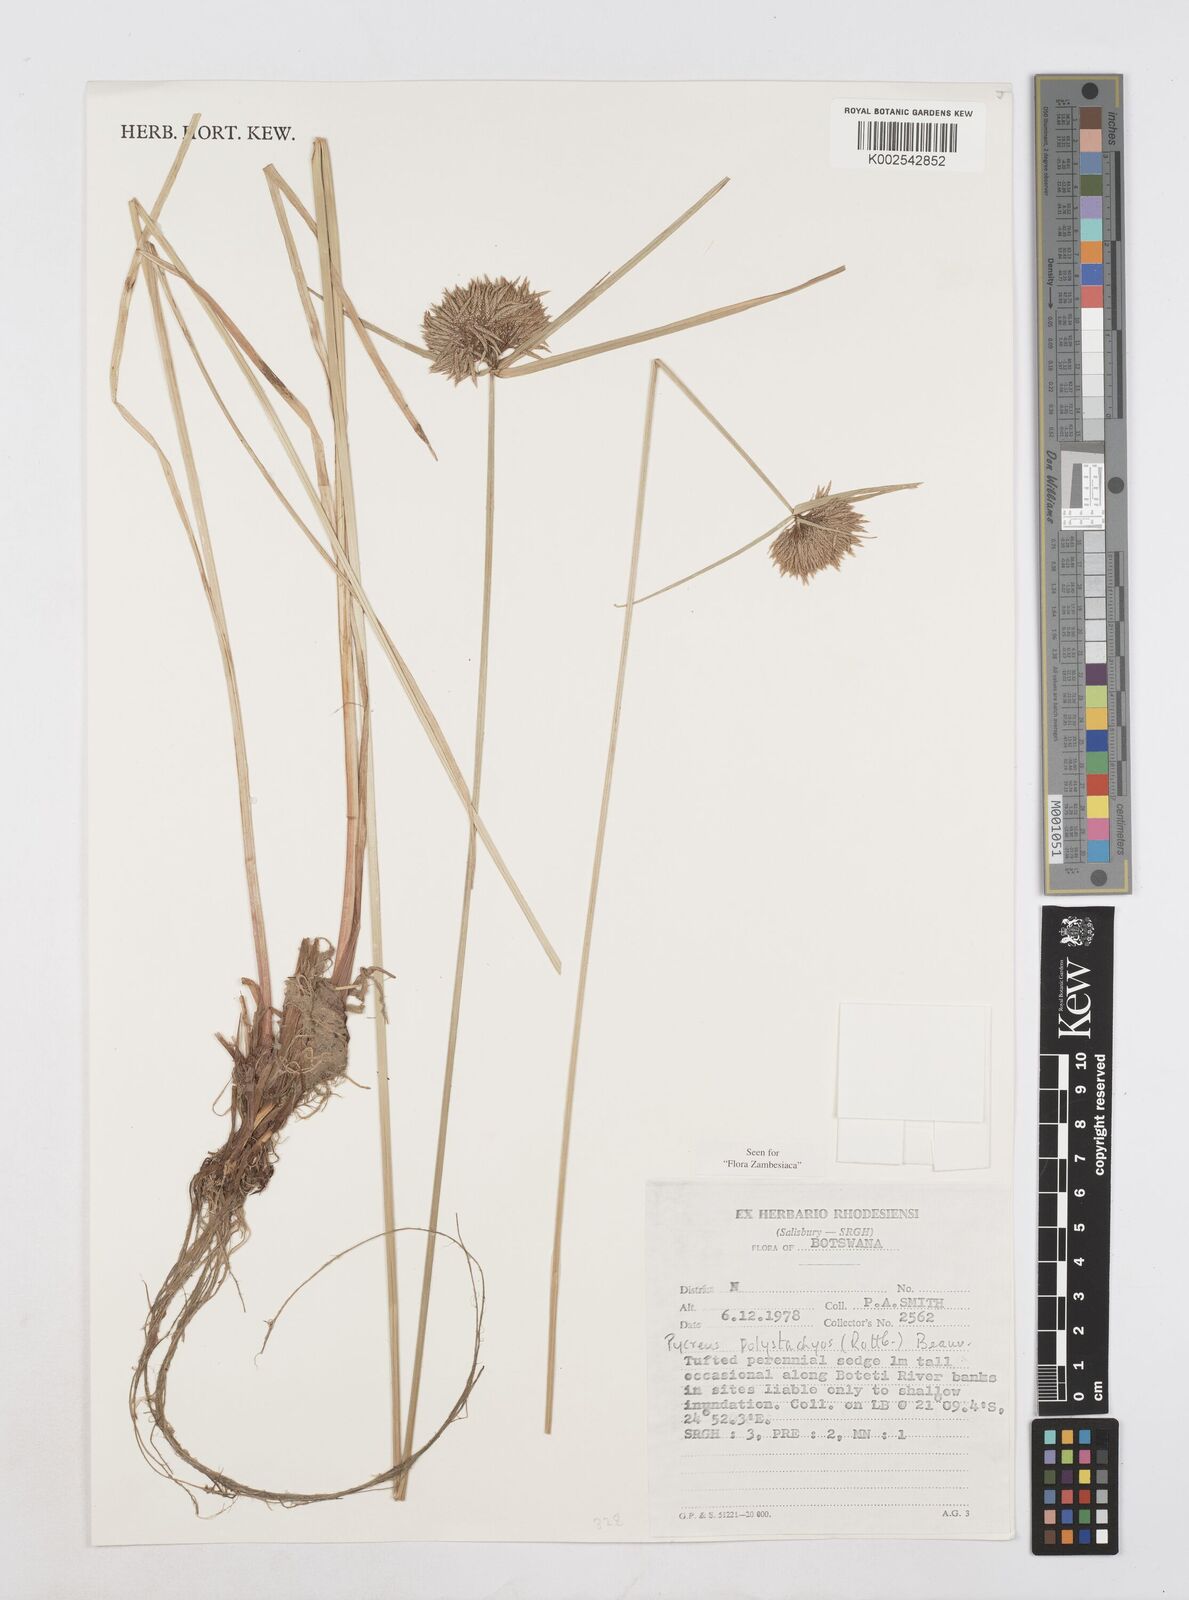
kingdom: Plantae
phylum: Tracheophyta
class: Liliopsida
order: Poales
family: Cyperaceae
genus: Cyperus
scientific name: Cyperus polystachyos
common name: Bunchy flat sedge
